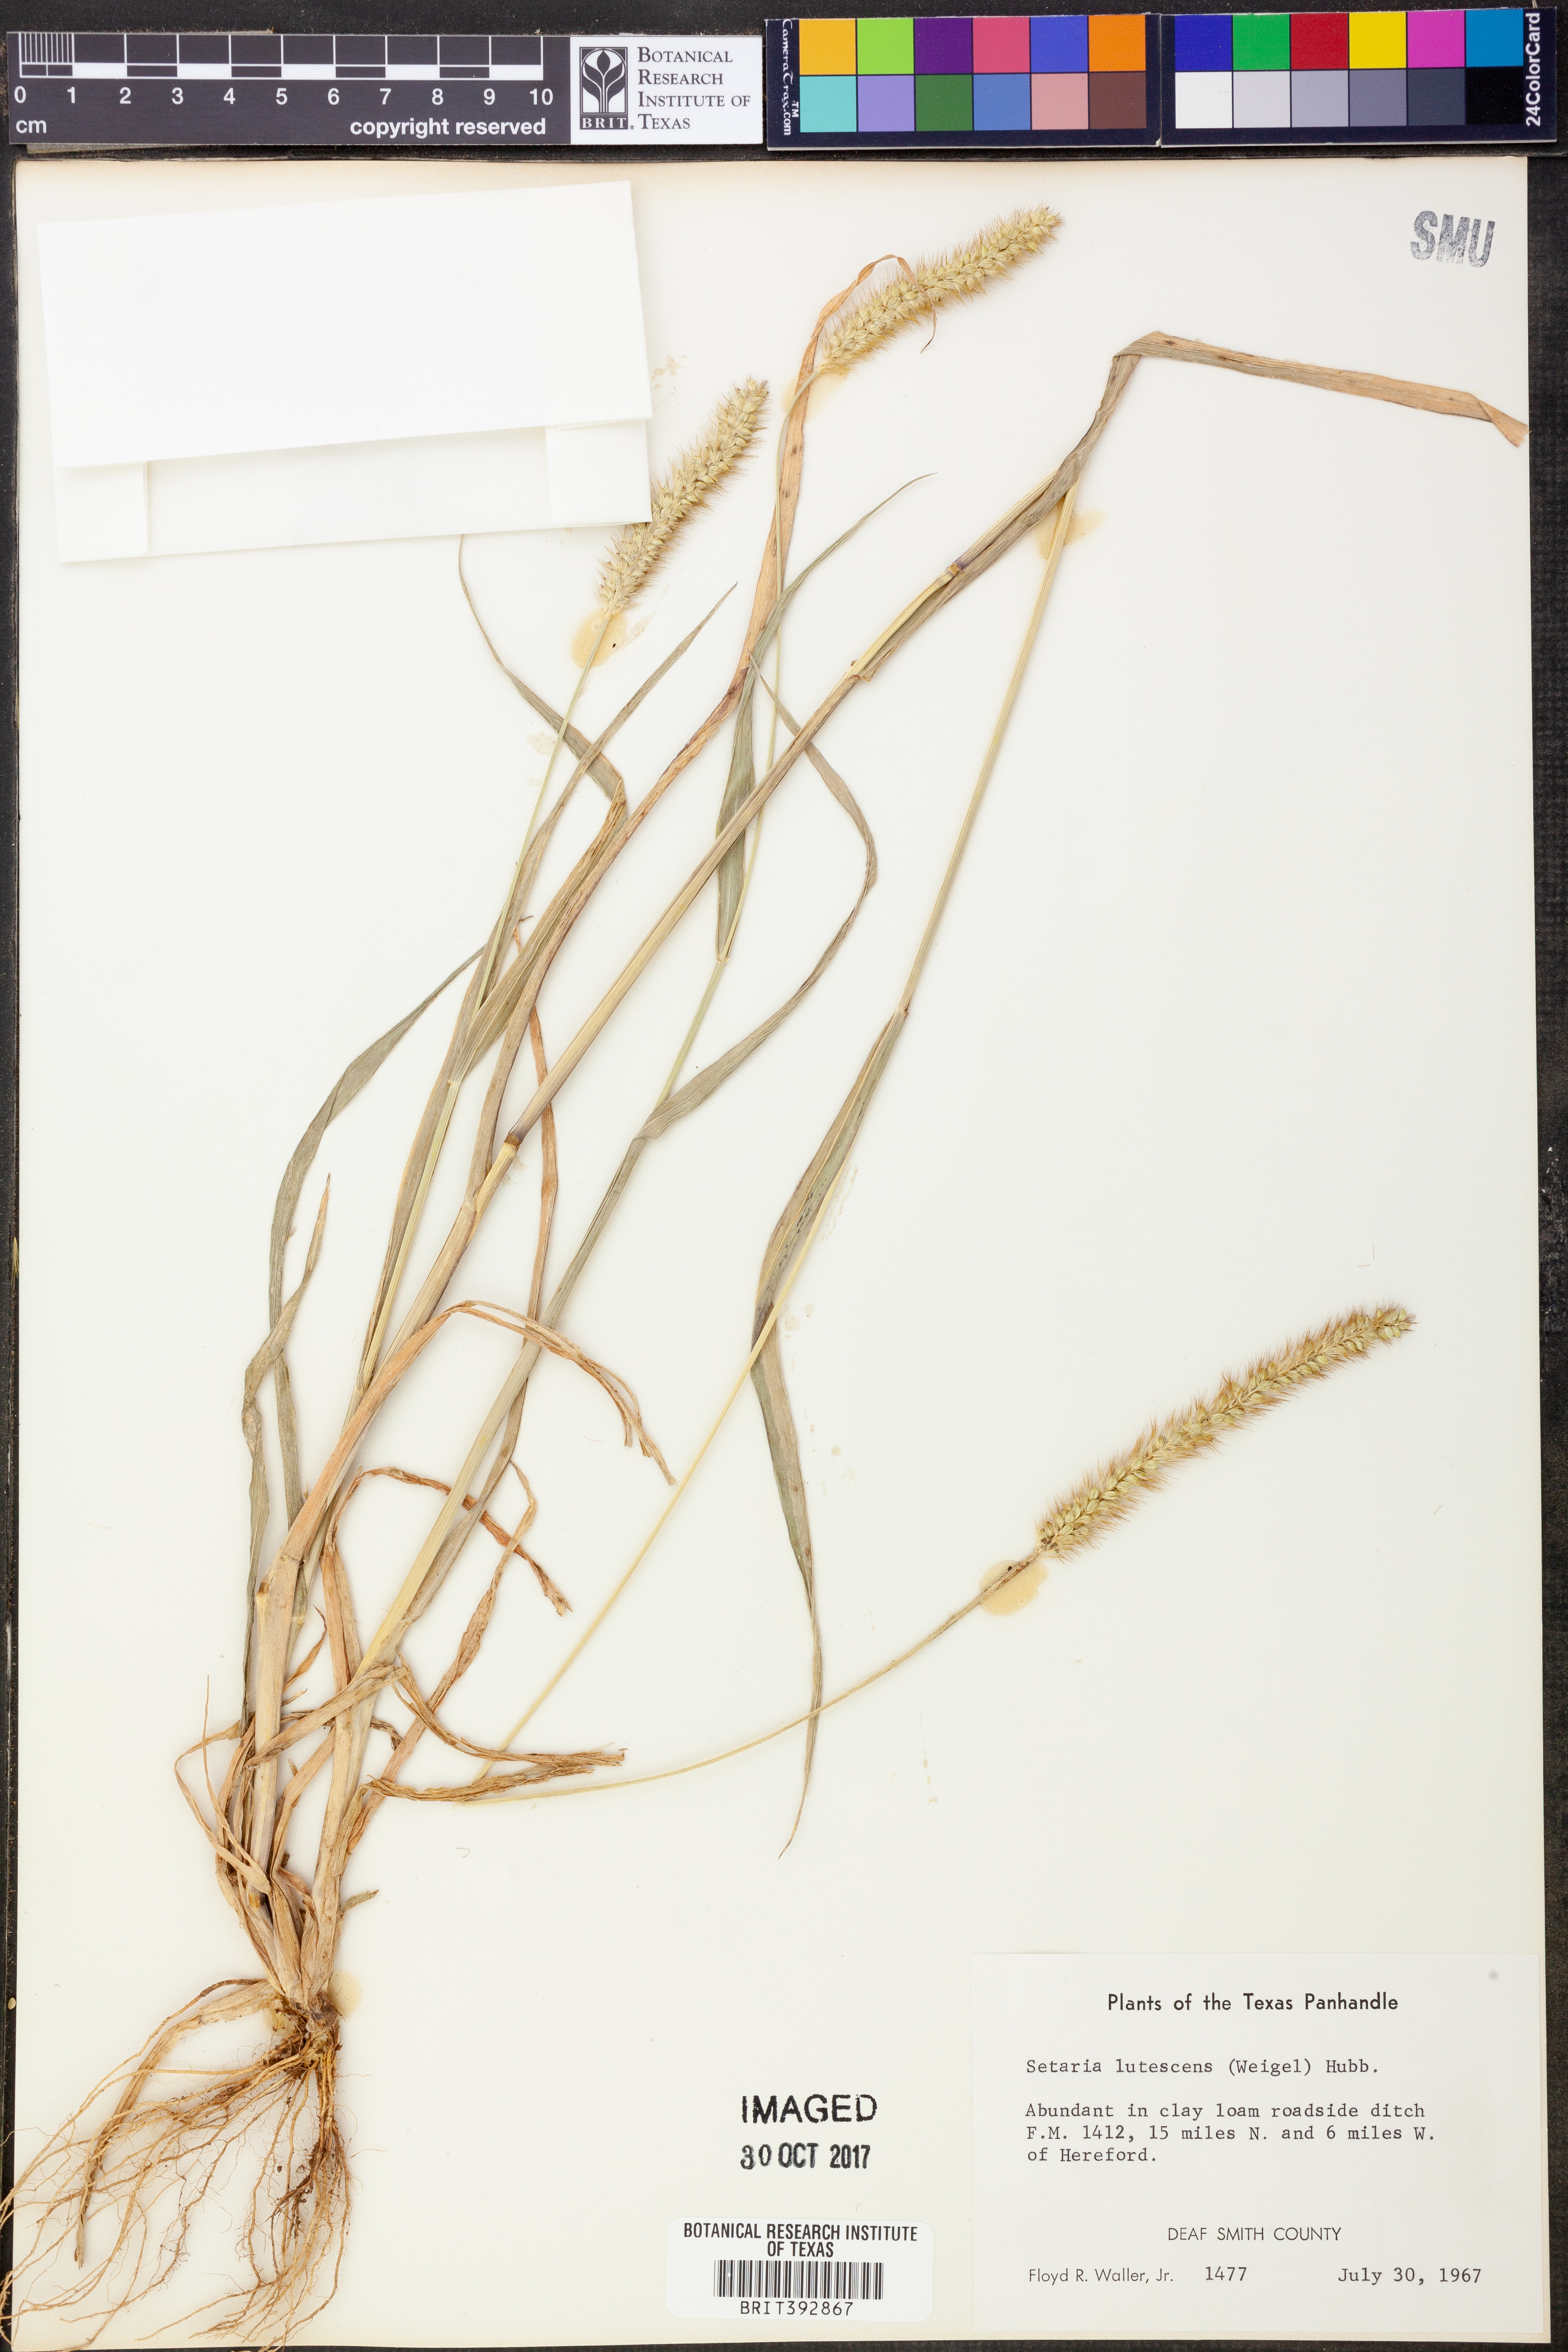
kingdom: Plantae
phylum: Tracheophyta
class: Liliopsida
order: Poales
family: Poaceae
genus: Cenchrus
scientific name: Cenchrus americanus
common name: Pearl millet
